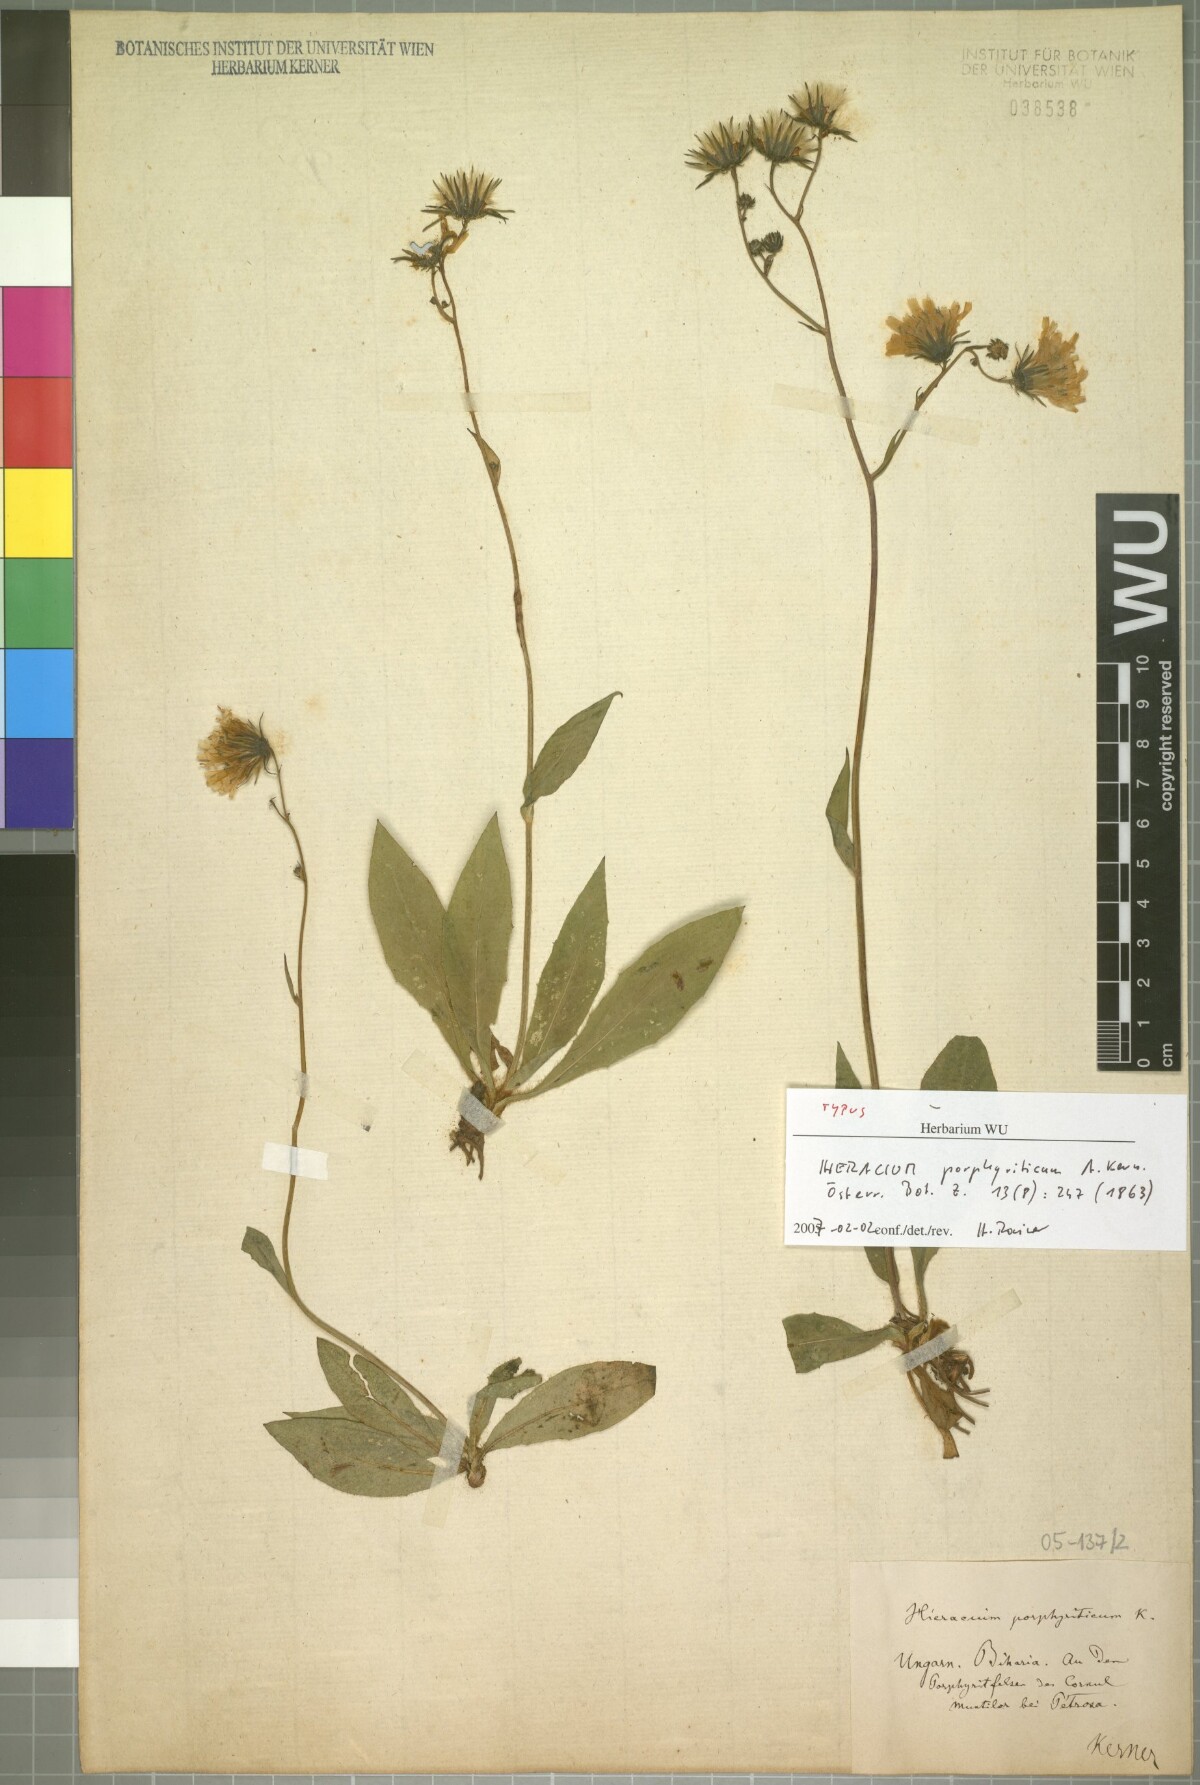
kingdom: Plantae
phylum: Tracheophyta
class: Magnoliopsida
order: Asterales
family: Asteraceae
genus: Hieracium
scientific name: Hieracium sparsum
